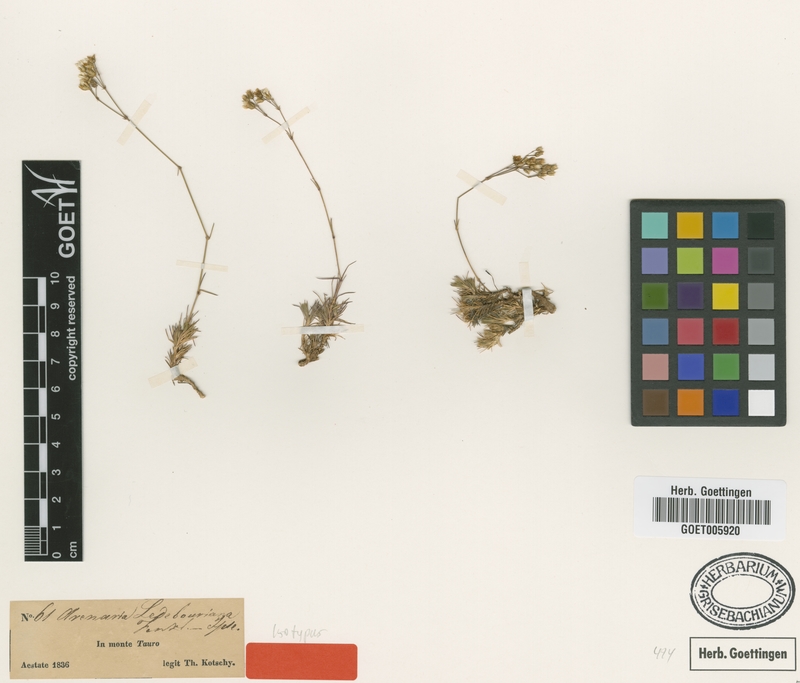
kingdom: Plantae
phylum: Tracheophyta
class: Magnoliopsida
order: Caryophyllales
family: Caryophyllaceae
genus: Eremogone
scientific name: Eremogone ledebouriana
